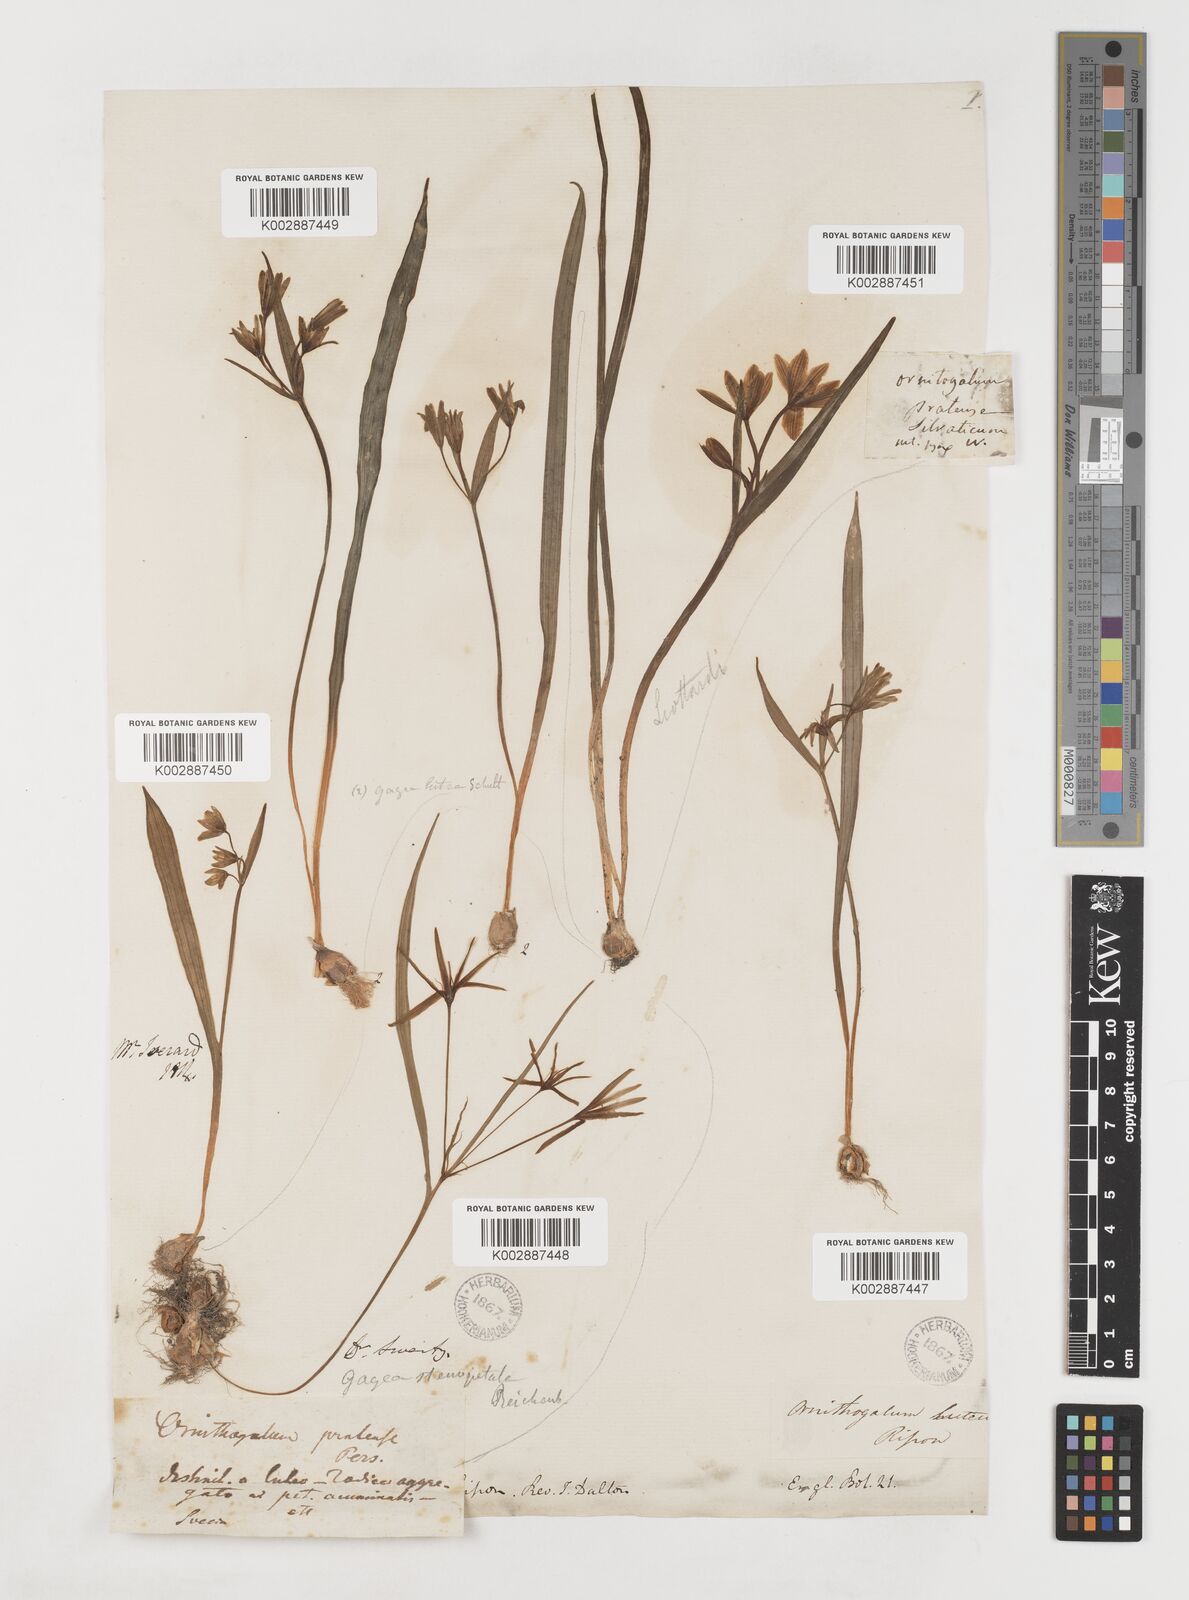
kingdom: Plantae
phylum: Tracheophyta
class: Liliopsida
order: Liliales
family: Liliaceae
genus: Gagea
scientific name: Gagea lutea
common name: Yellow star-of-bethlehem
